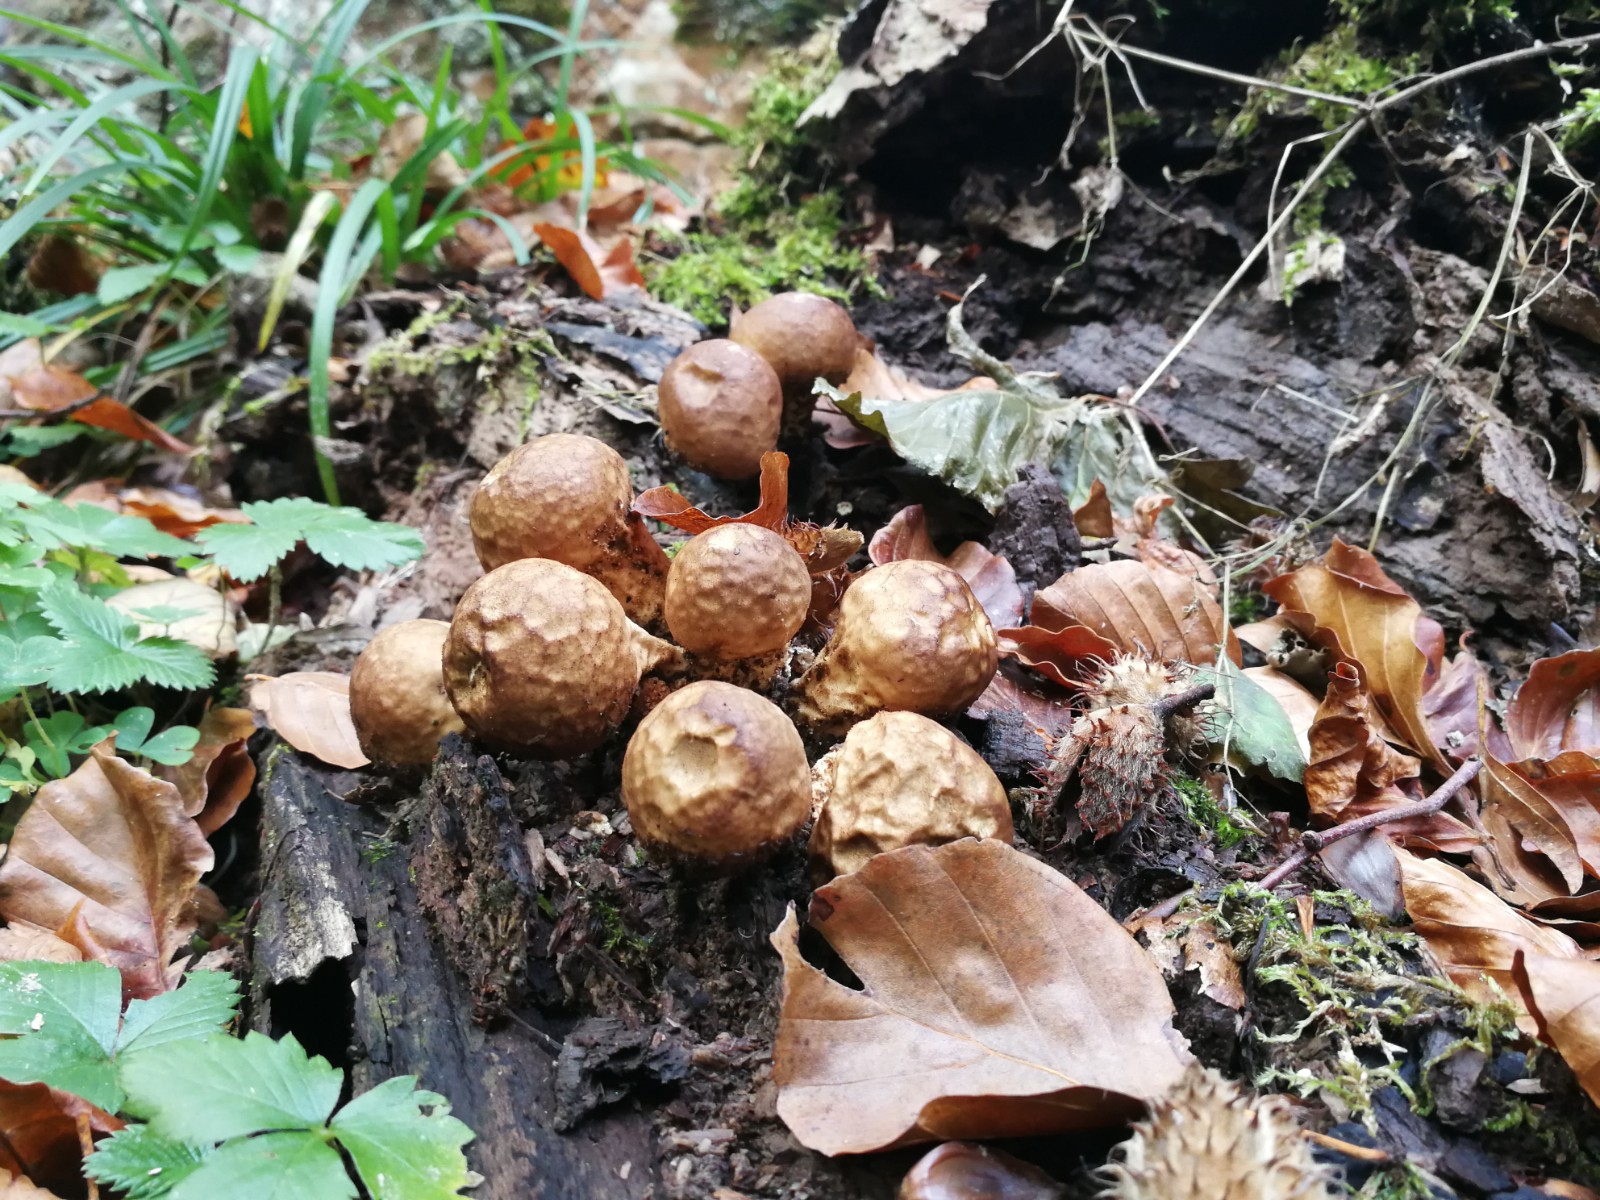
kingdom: Fungi
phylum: Basidiomycota
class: Agaricomycetes
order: Agaricales
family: Lycoperdaceae
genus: Apioperdon
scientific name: Apioperdon
